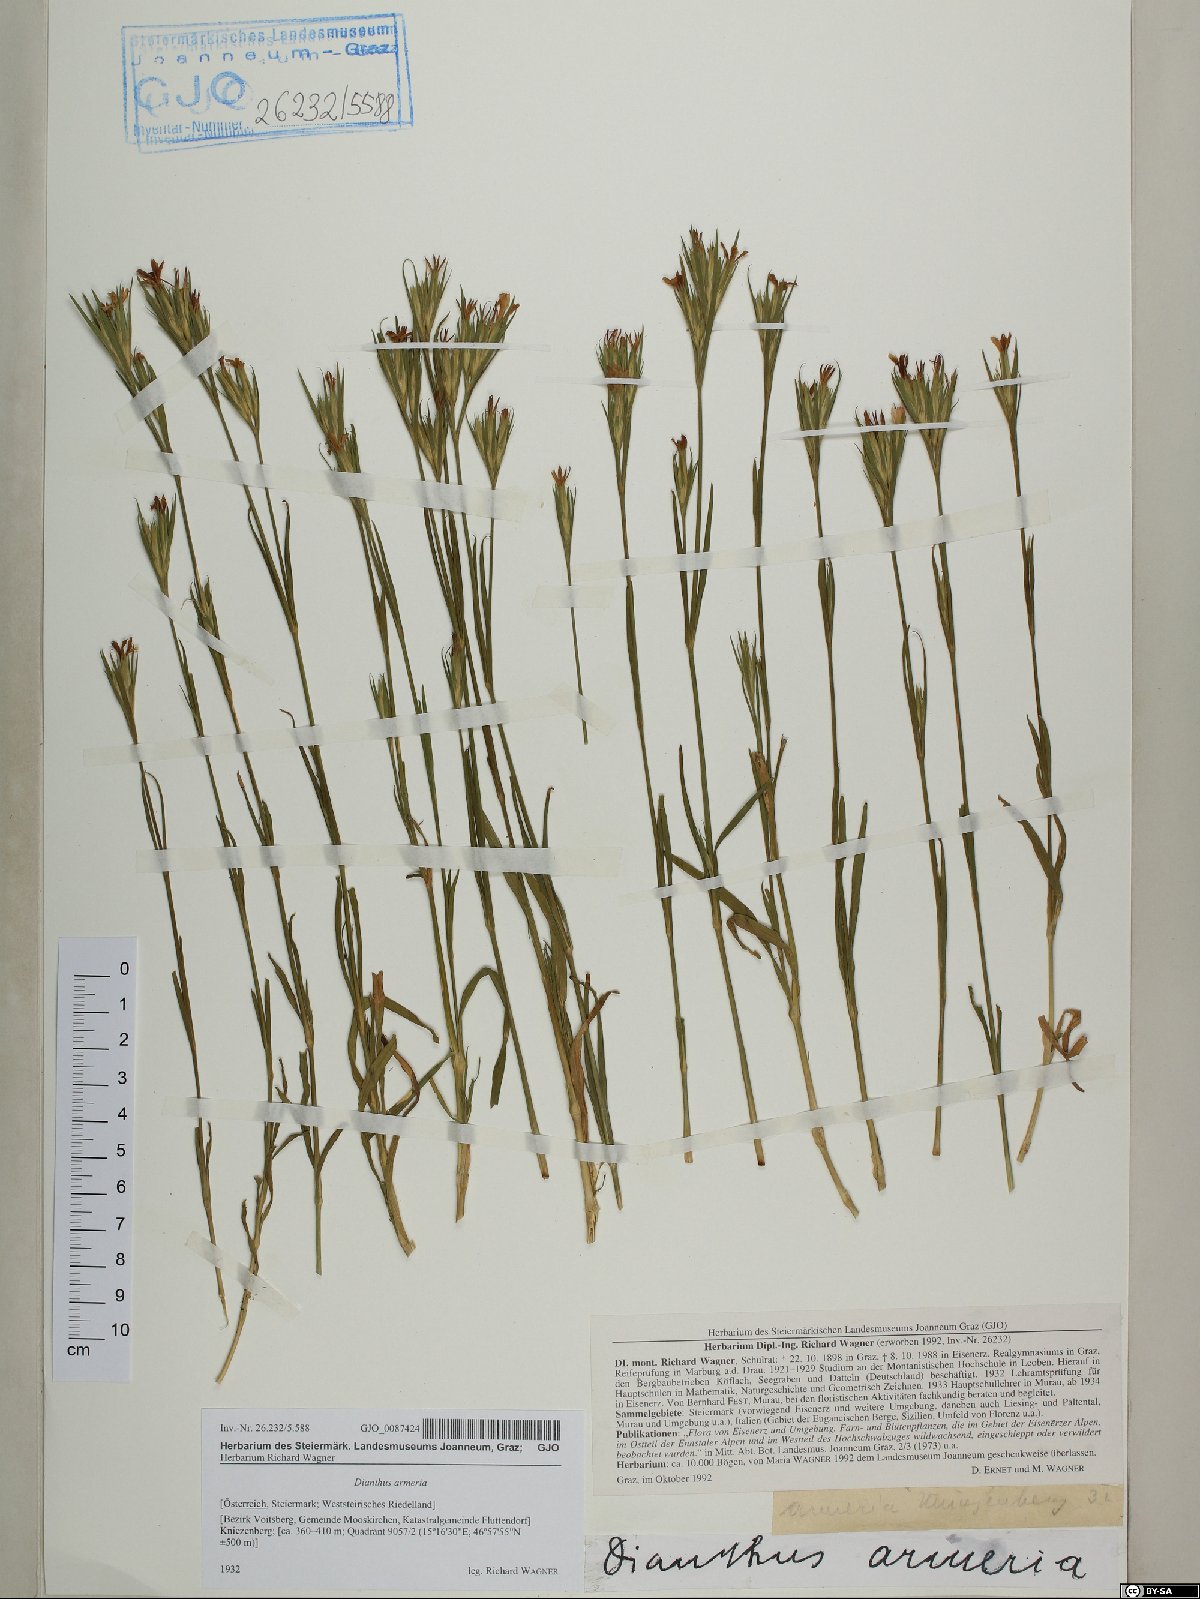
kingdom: Plantae
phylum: Tracheophyta
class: Magnoliopsida
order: Caryophyllales
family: Caryophyllaceae
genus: Dianthus
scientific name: Dianthus armeria
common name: Deptford pink
